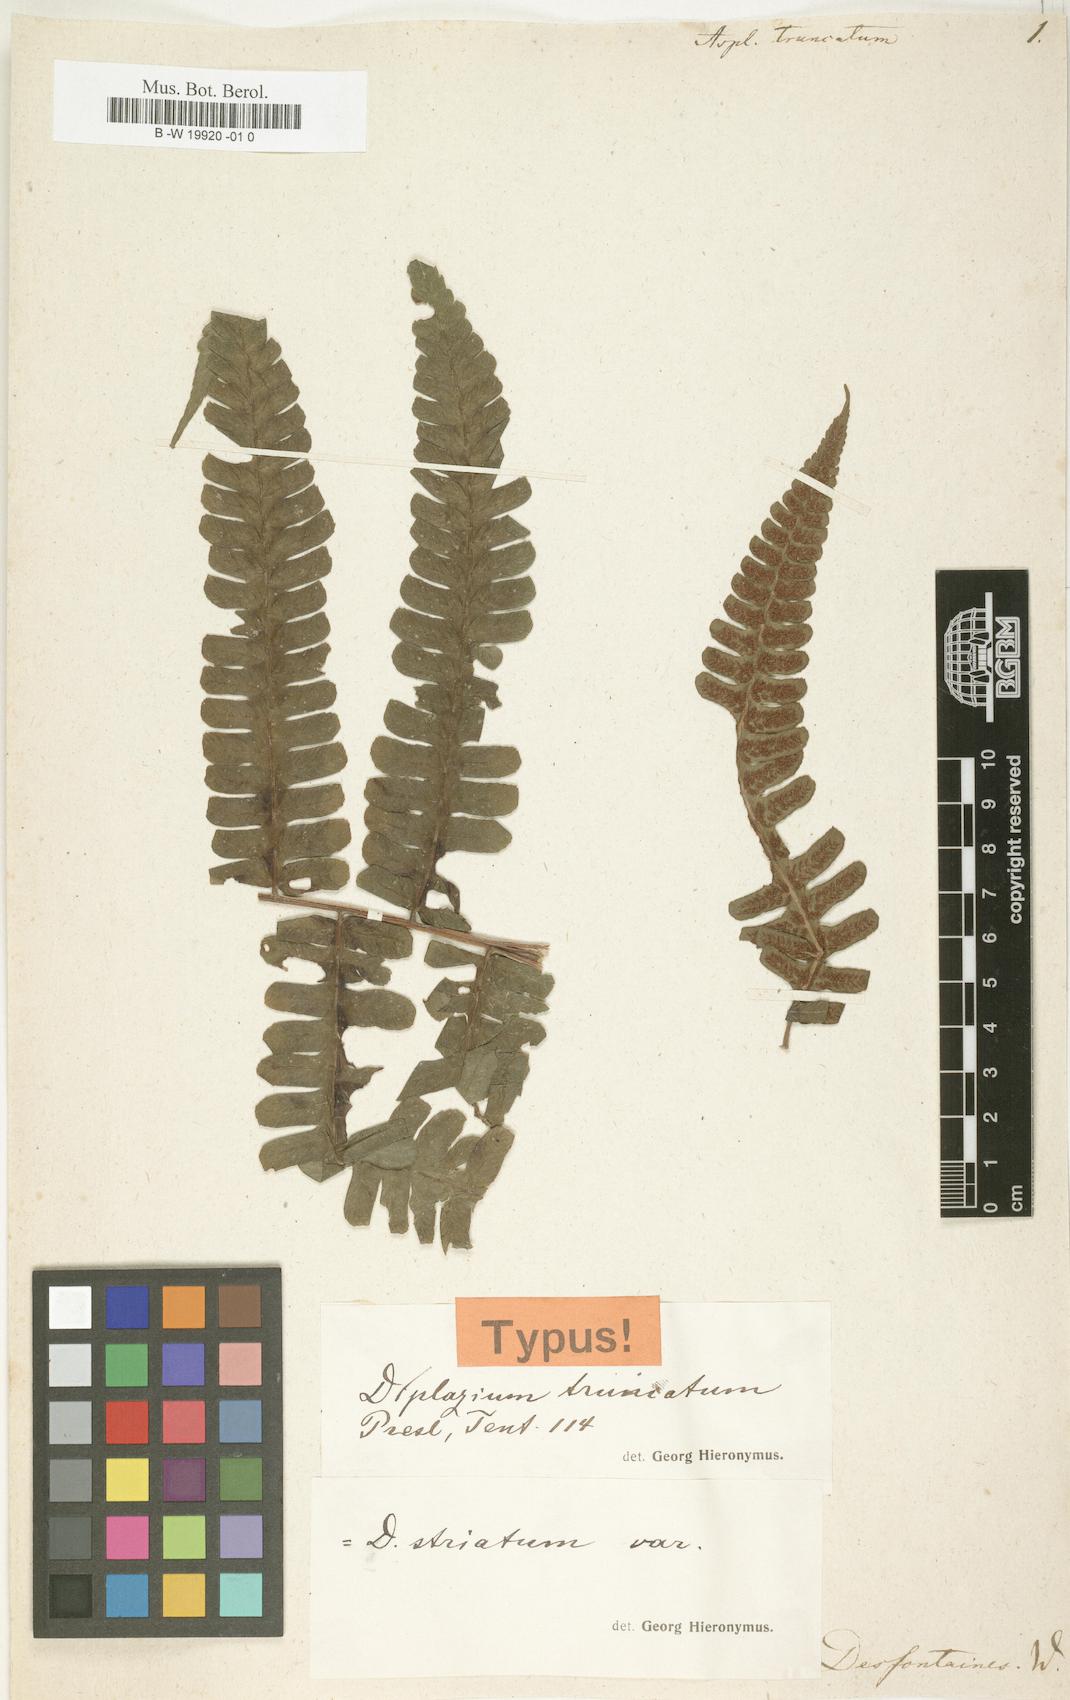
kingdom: Plantae
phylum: Tracheophyta
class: Polypodiopsida
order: Polypodiales
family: Aspleniaceae
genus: Asplenium
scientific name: Asplenium laciniatum
